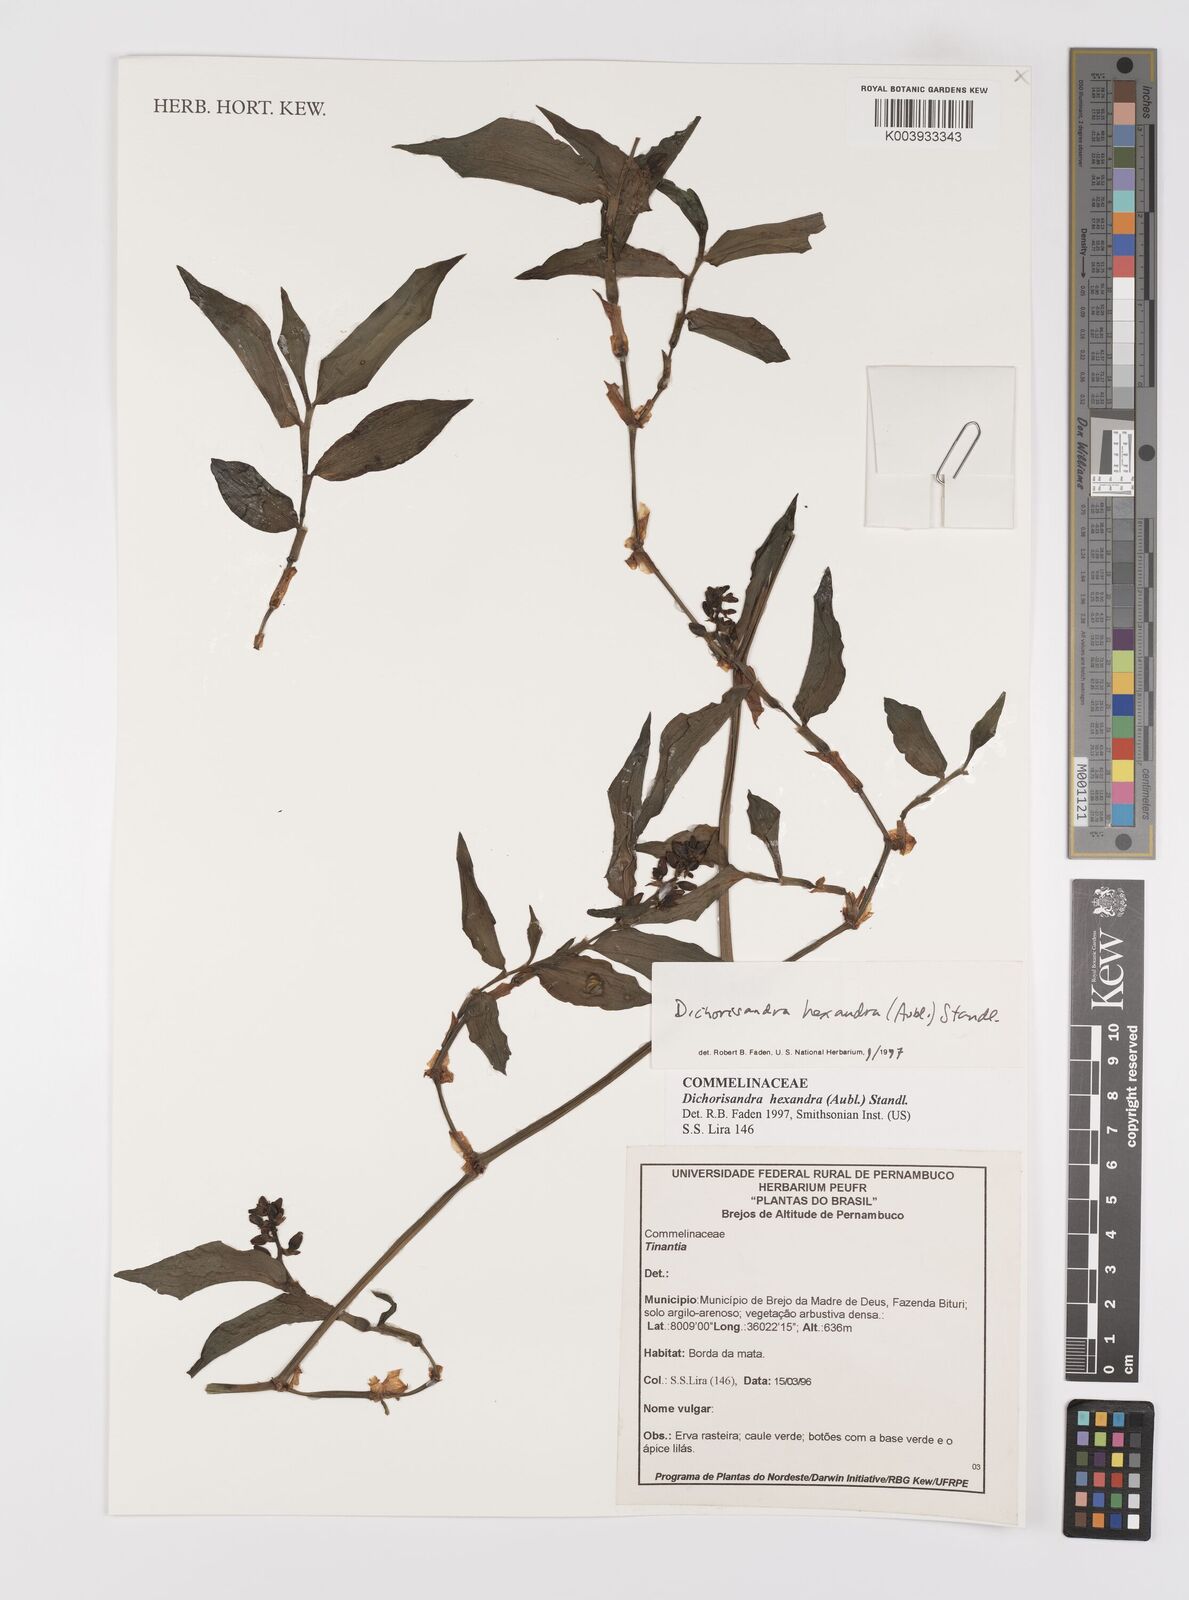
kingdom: Plantae
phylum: Tracheophyta
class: Liliopsida
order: Commelinales
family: Commelinaceae
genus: Dichorisandra
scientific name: Dichorisandra
